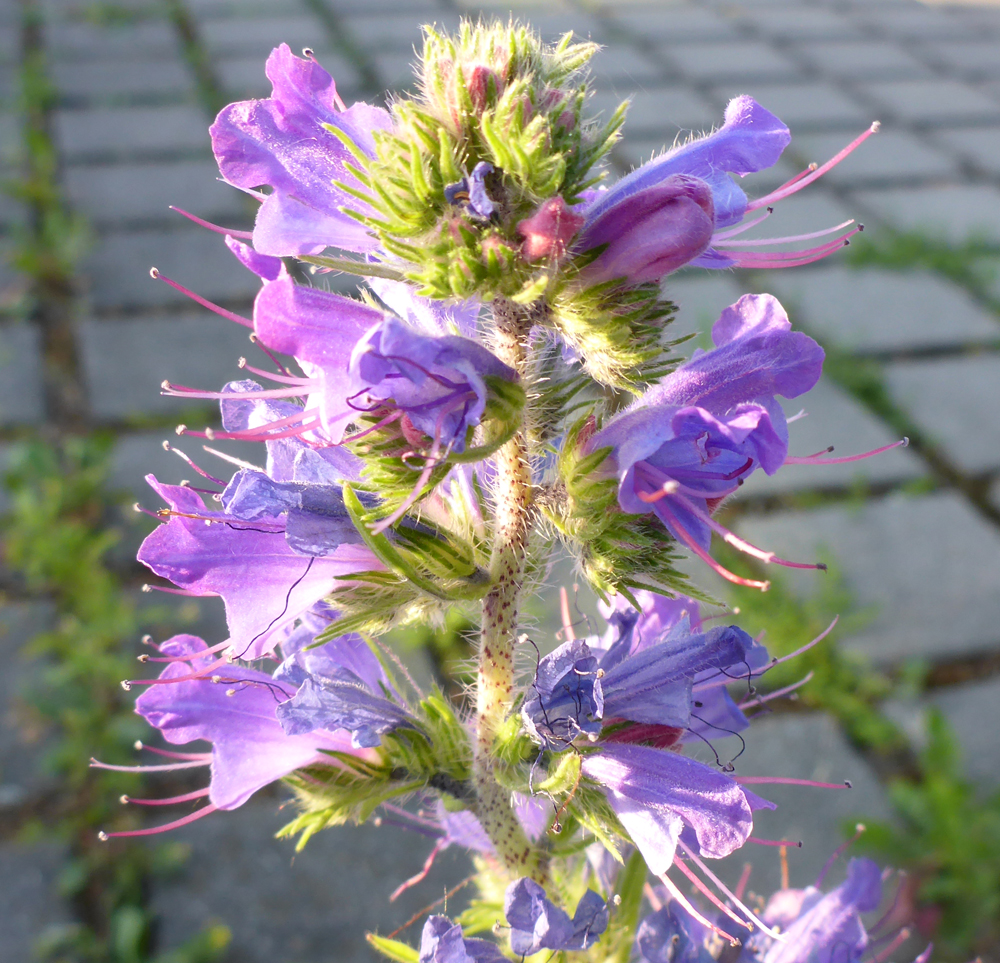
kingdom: Plantae
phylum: Tracheophyta
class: Magnoliopsida
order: Boraginales
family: Boraginaceae
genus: Echium
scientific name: Echium vulgare
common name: Common viper's bugloss
